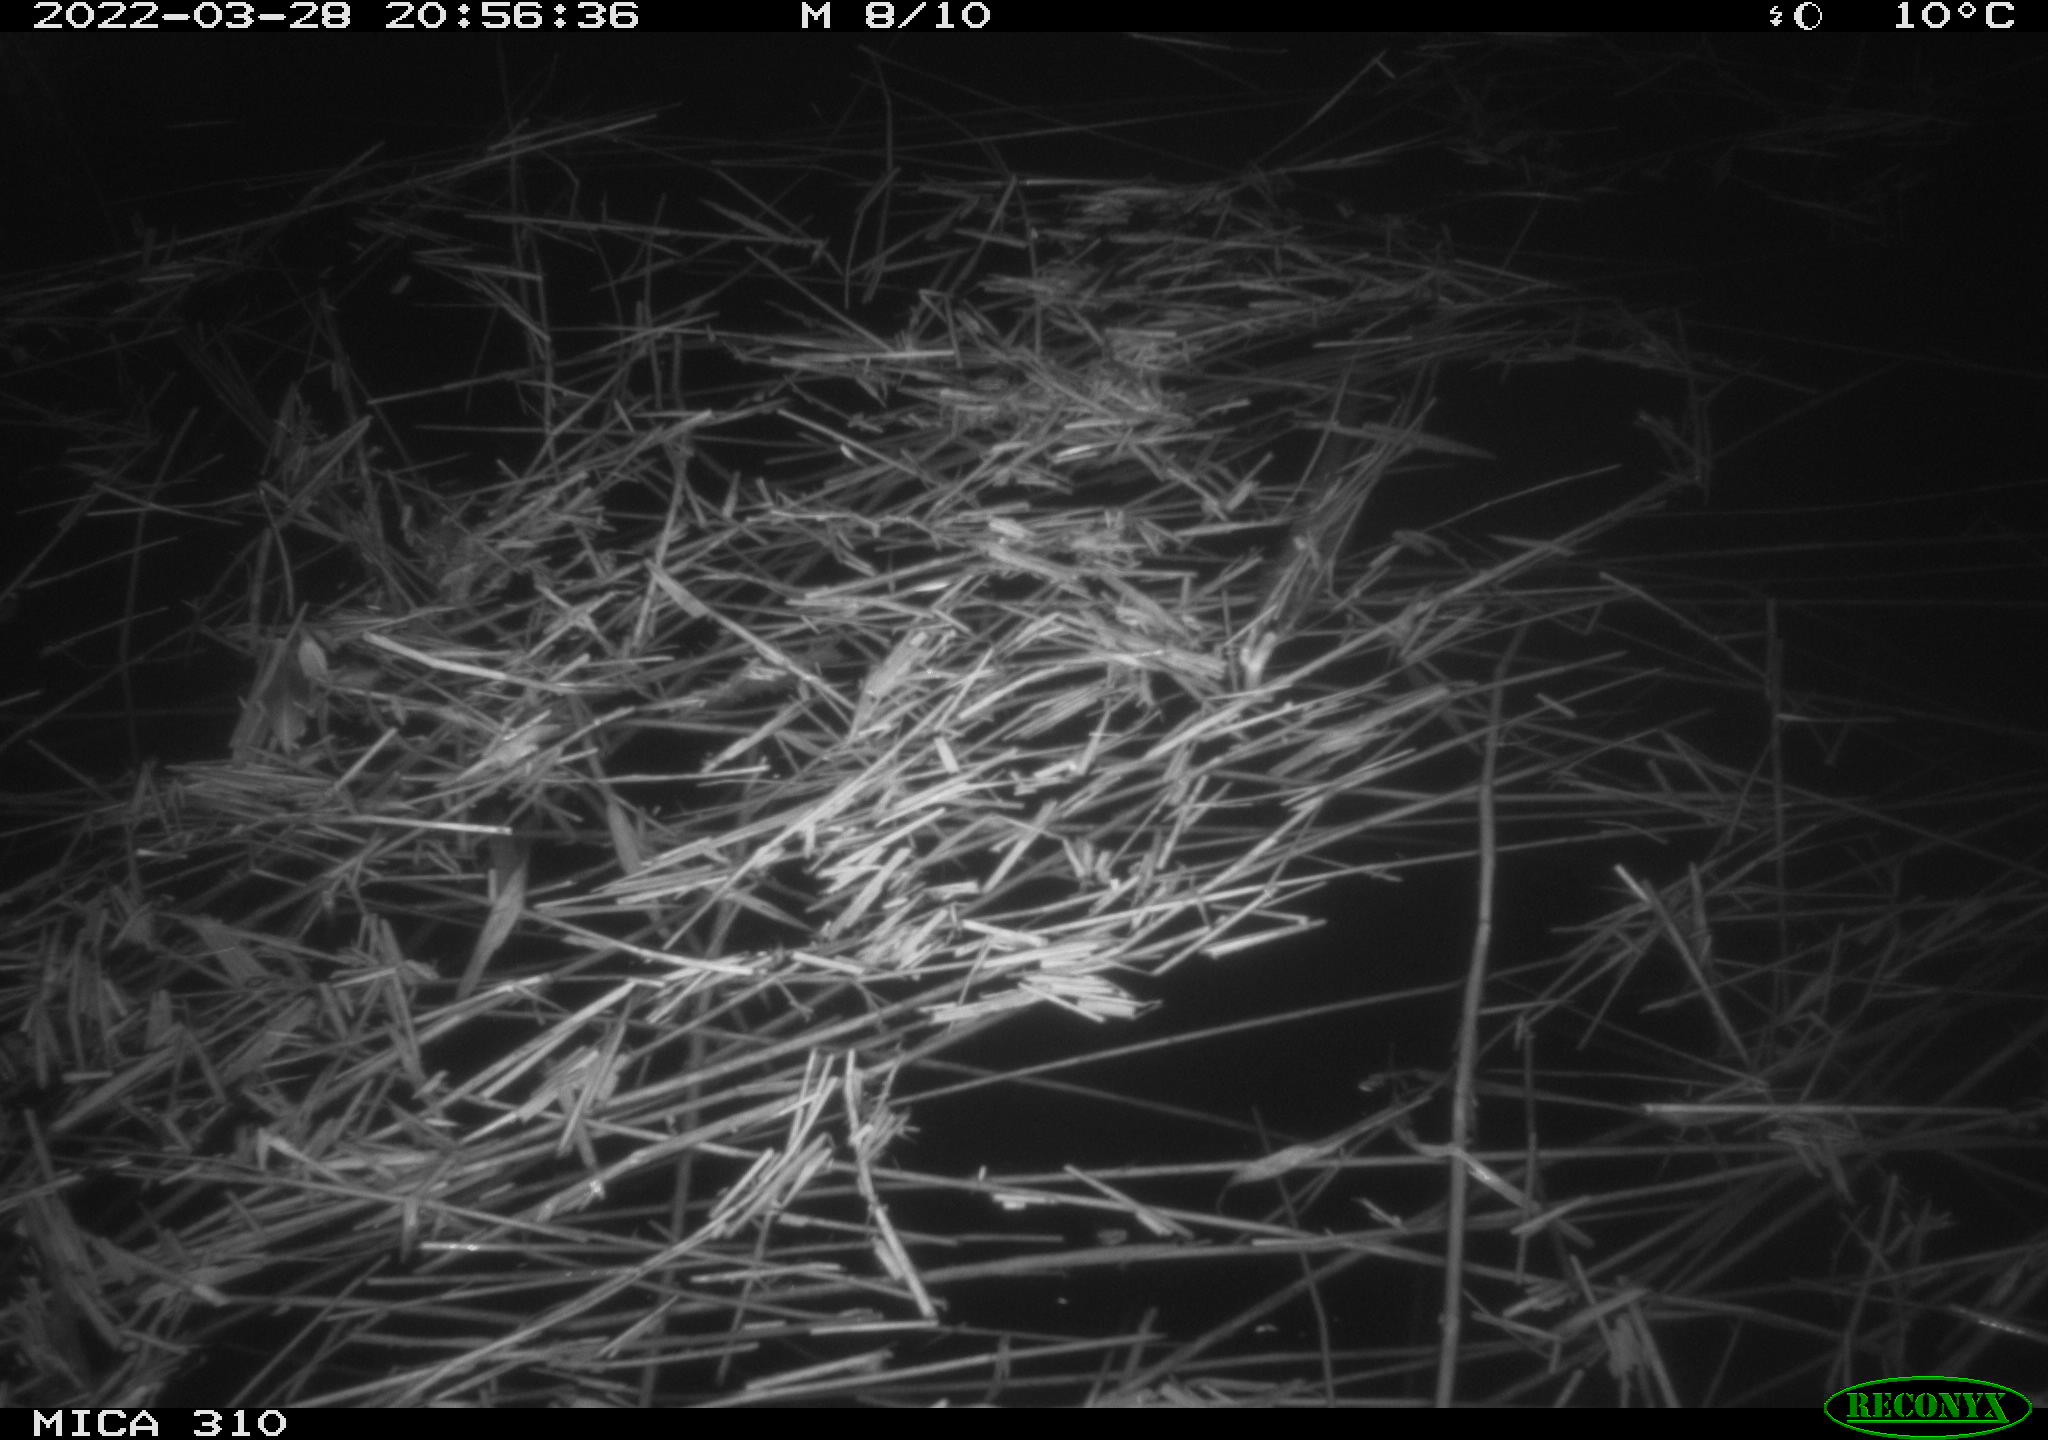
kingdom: Animalia
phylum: Chordata
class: Aves
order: Anseriformes
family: Anatidae
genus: Anas
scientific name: Anas platyrhynchos
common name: Mallard
